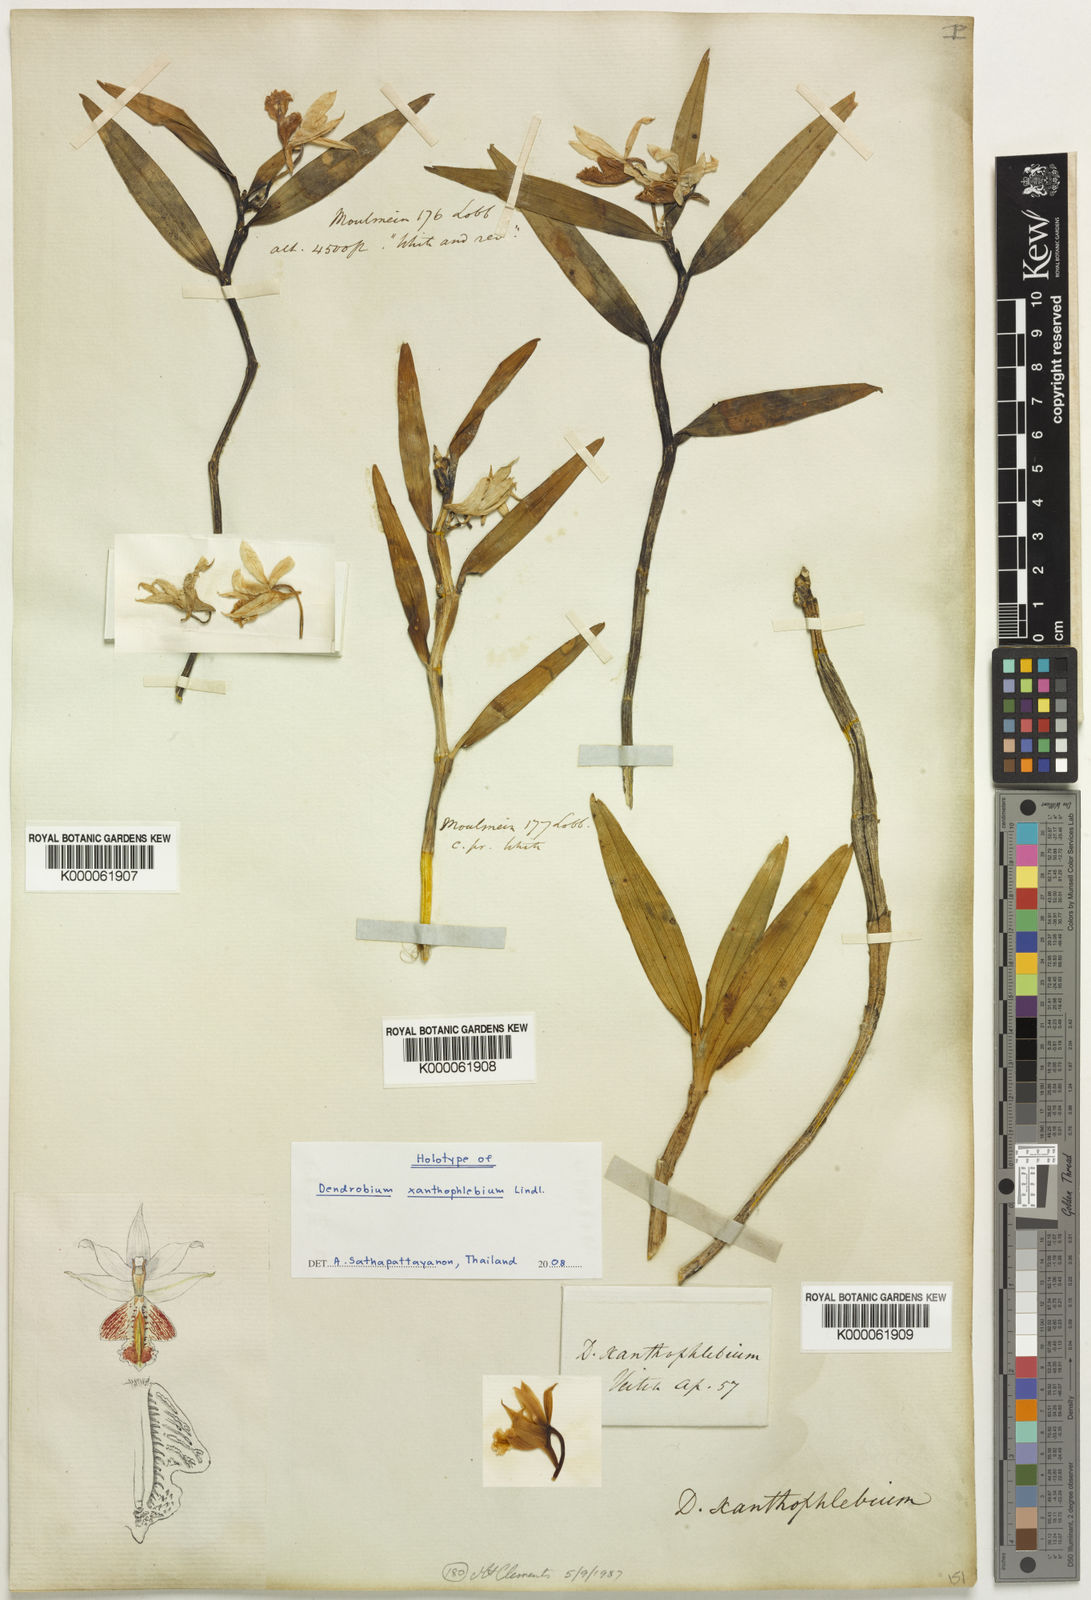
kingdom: Plantae
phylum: Tracheophyta
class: Liliopsida
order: Asparagales
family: Orchidaceae
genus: Dendrobium
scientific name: Dendrobium xanthophlebium
